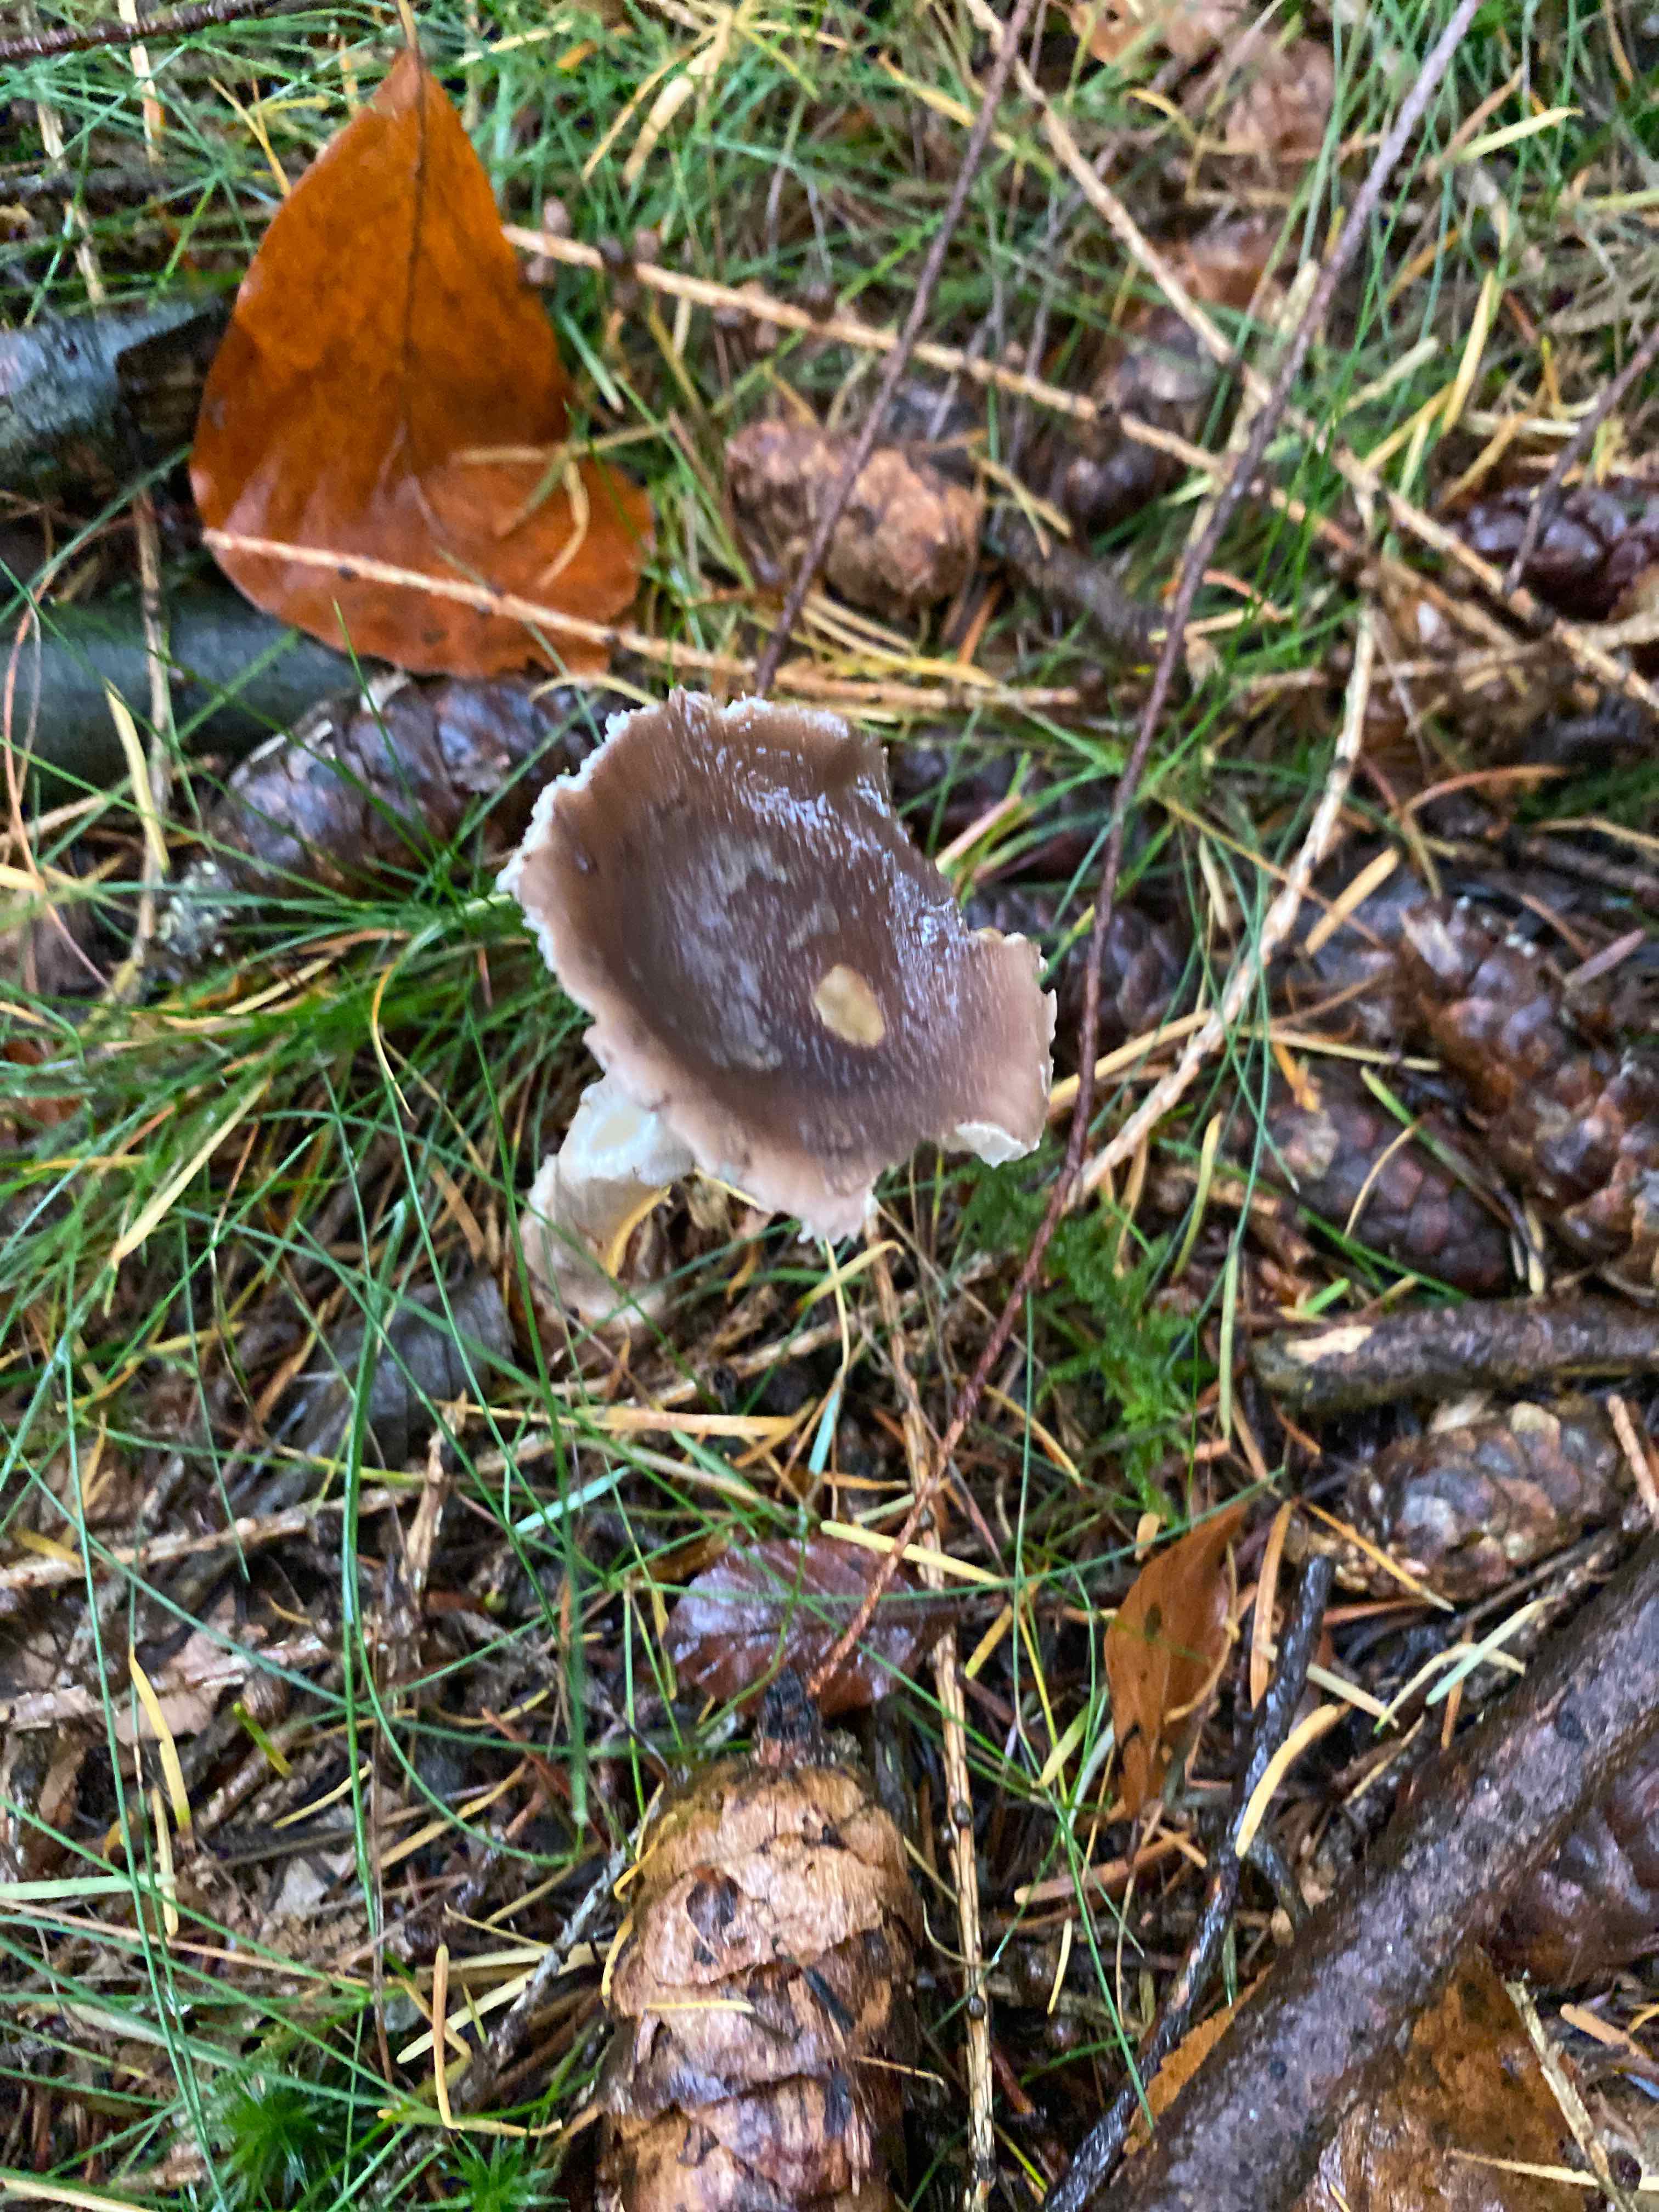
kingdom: Fungi
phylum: Basidiomycota
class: Agaricomycetes
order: Agaricales
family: Amanitaceae
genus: Amanita
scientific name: Amanita
